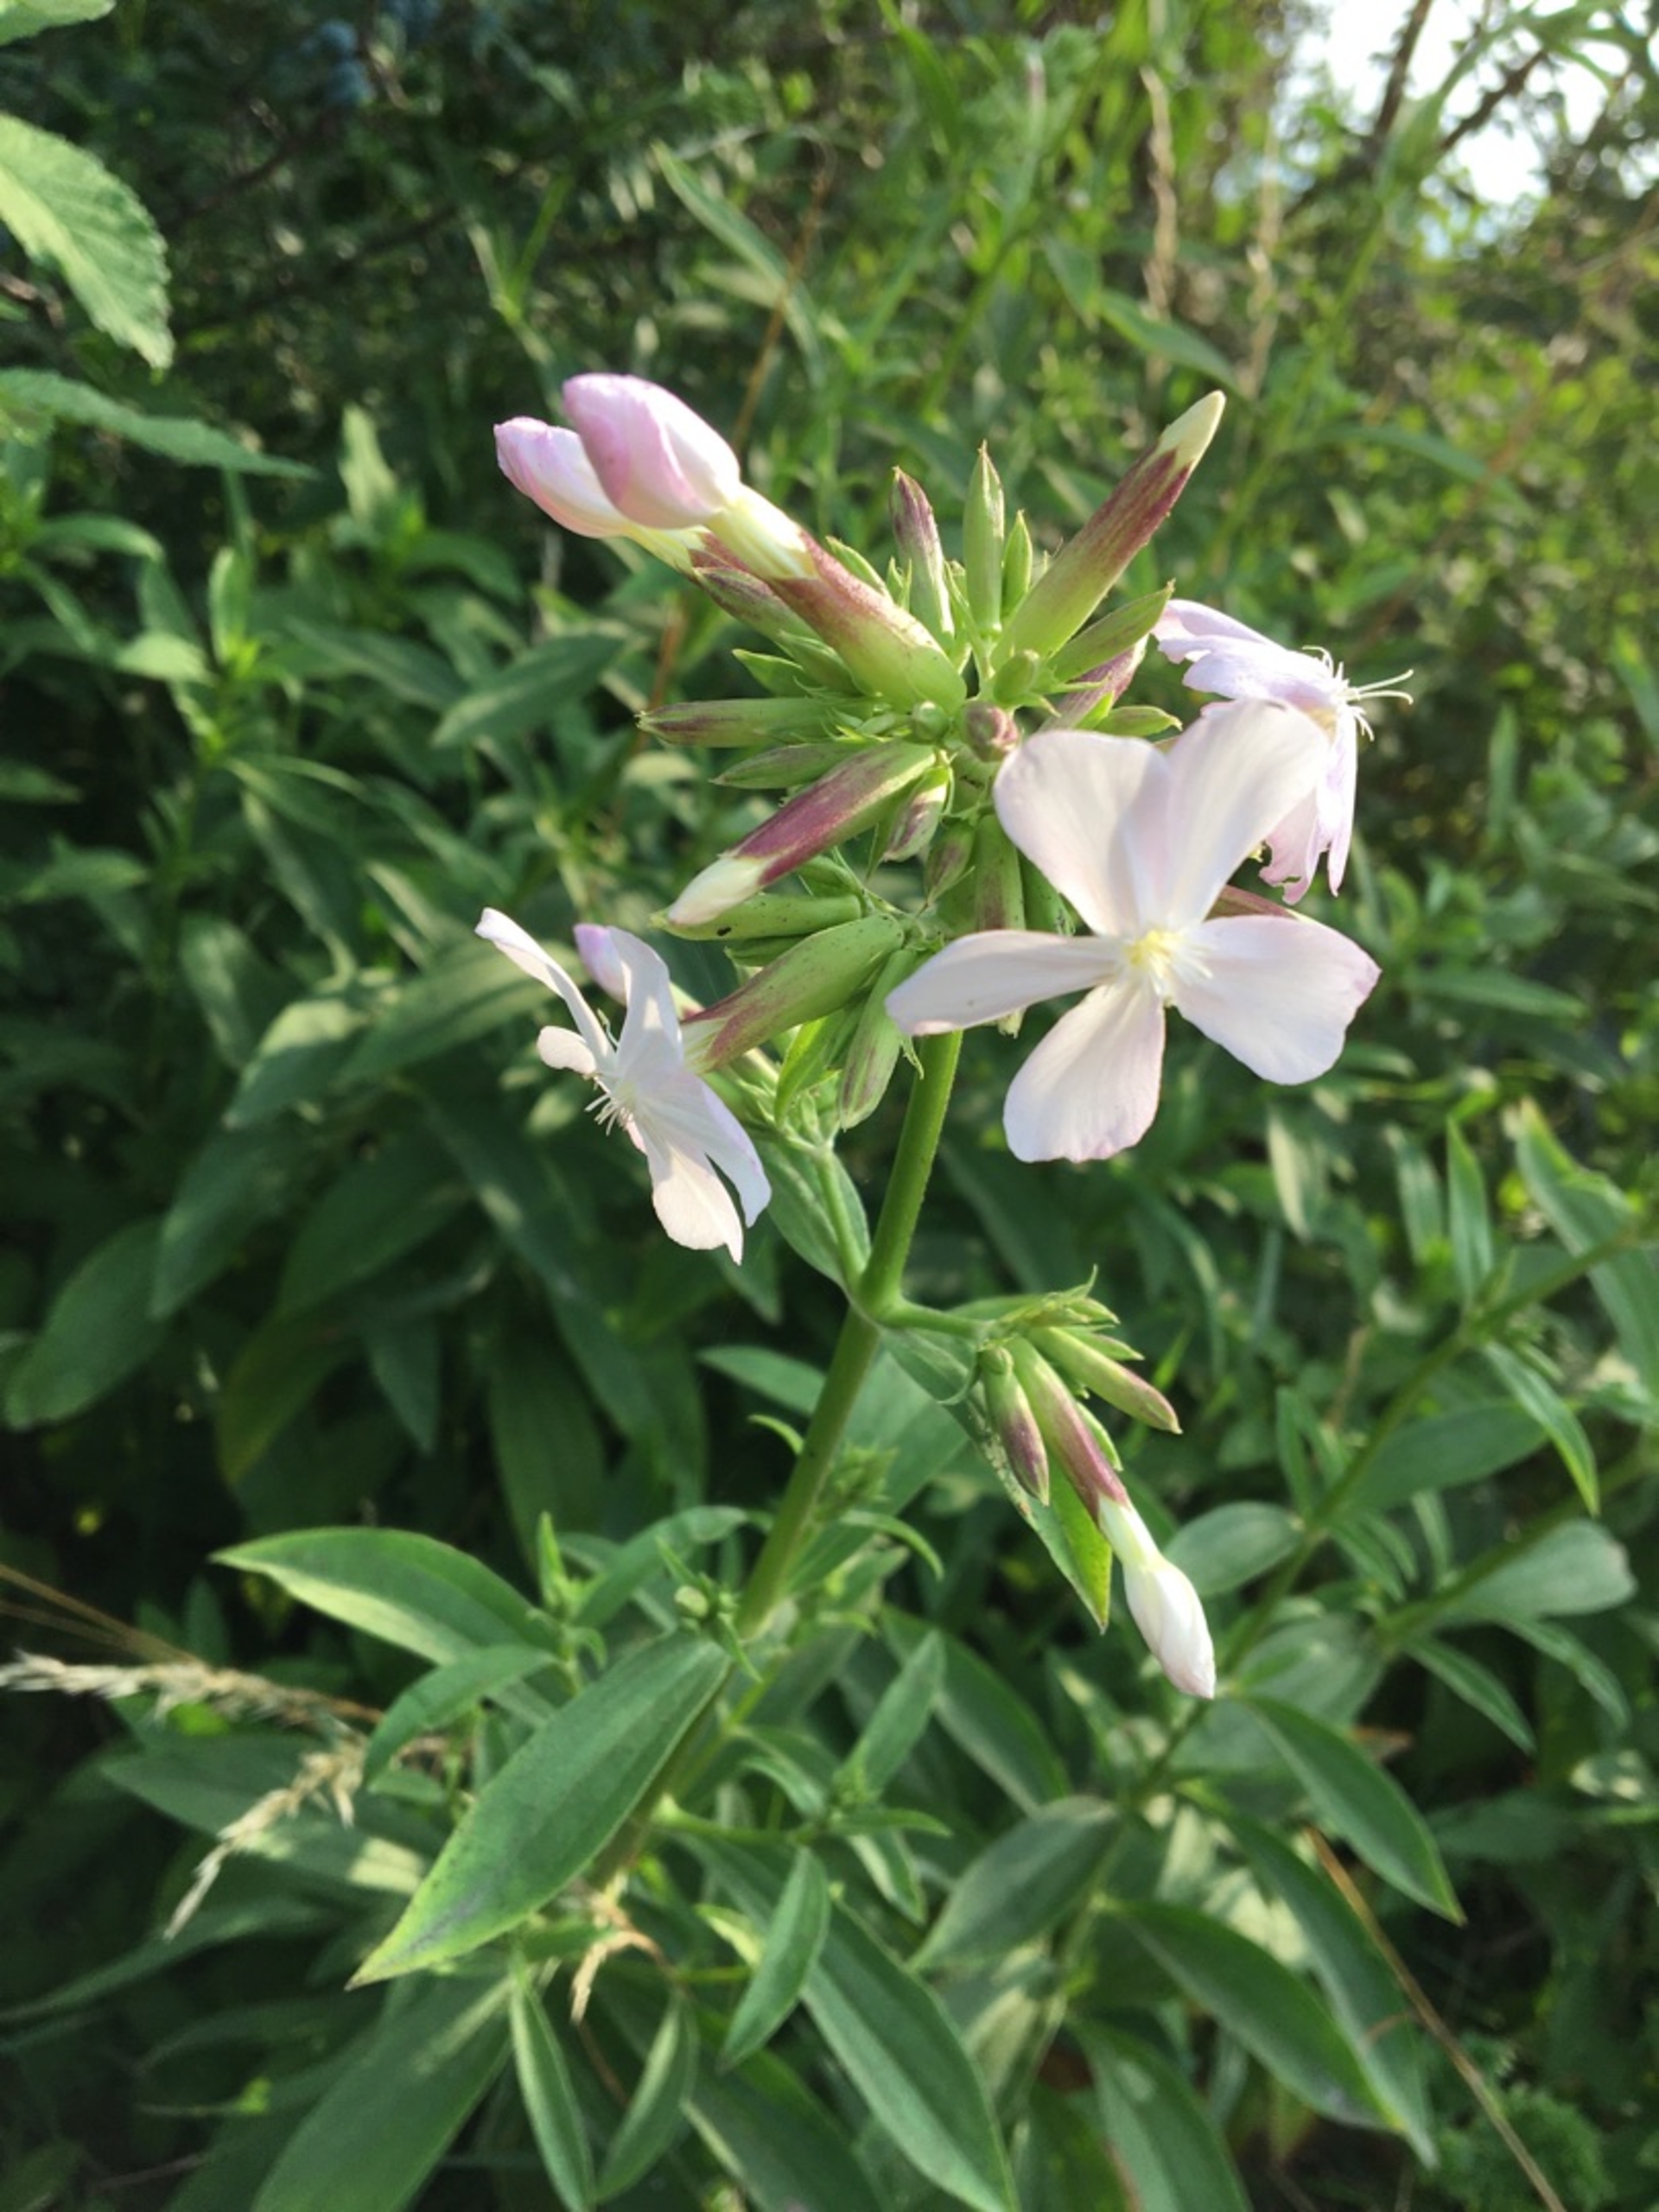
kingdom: Plantae
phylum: Tracheophyta
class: Magnoliopsida
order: Caryophyllales
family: Caryophyllaceae
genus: Saponaria
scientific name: Saponaria officinalis
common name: Sæbeurt
